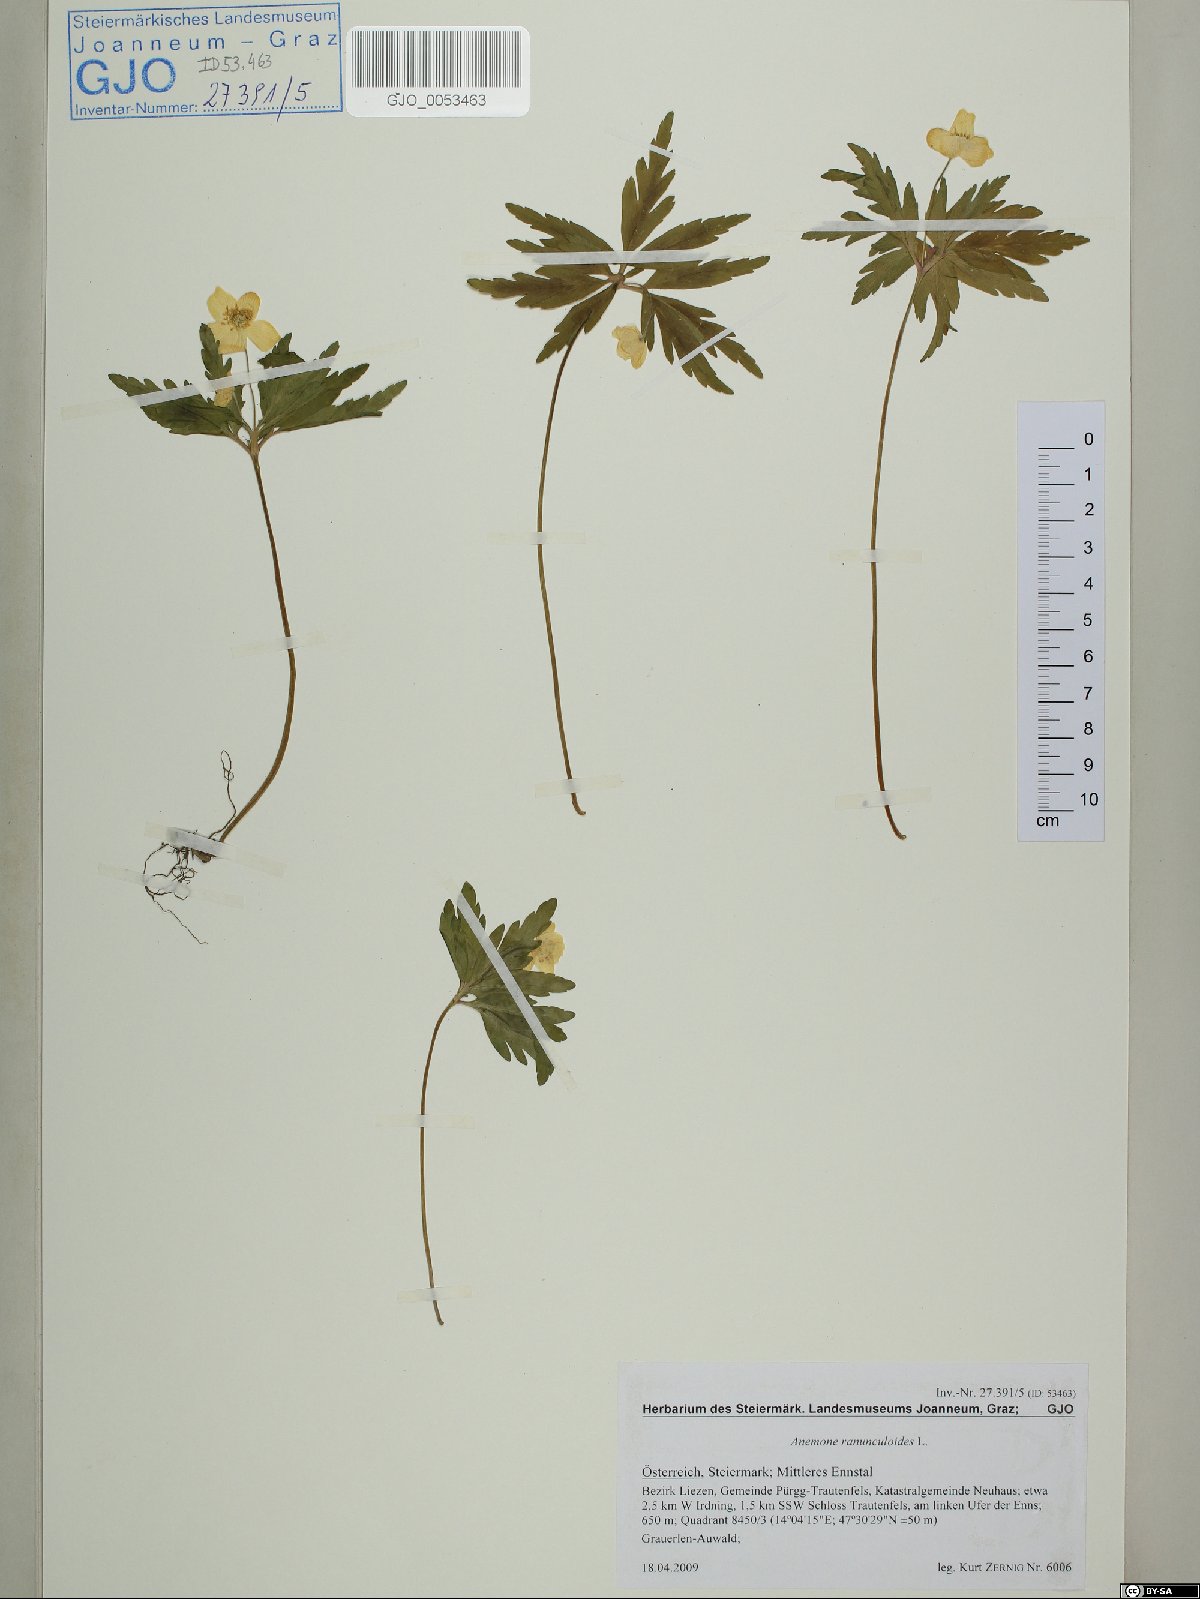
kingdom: Plantae
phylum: Tracheophyta
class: Magnoliopsida
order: Ranunculales
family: Ranunculaceae
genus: Anemone
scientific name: Anemone ranunculoides
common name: Yellow anemone
